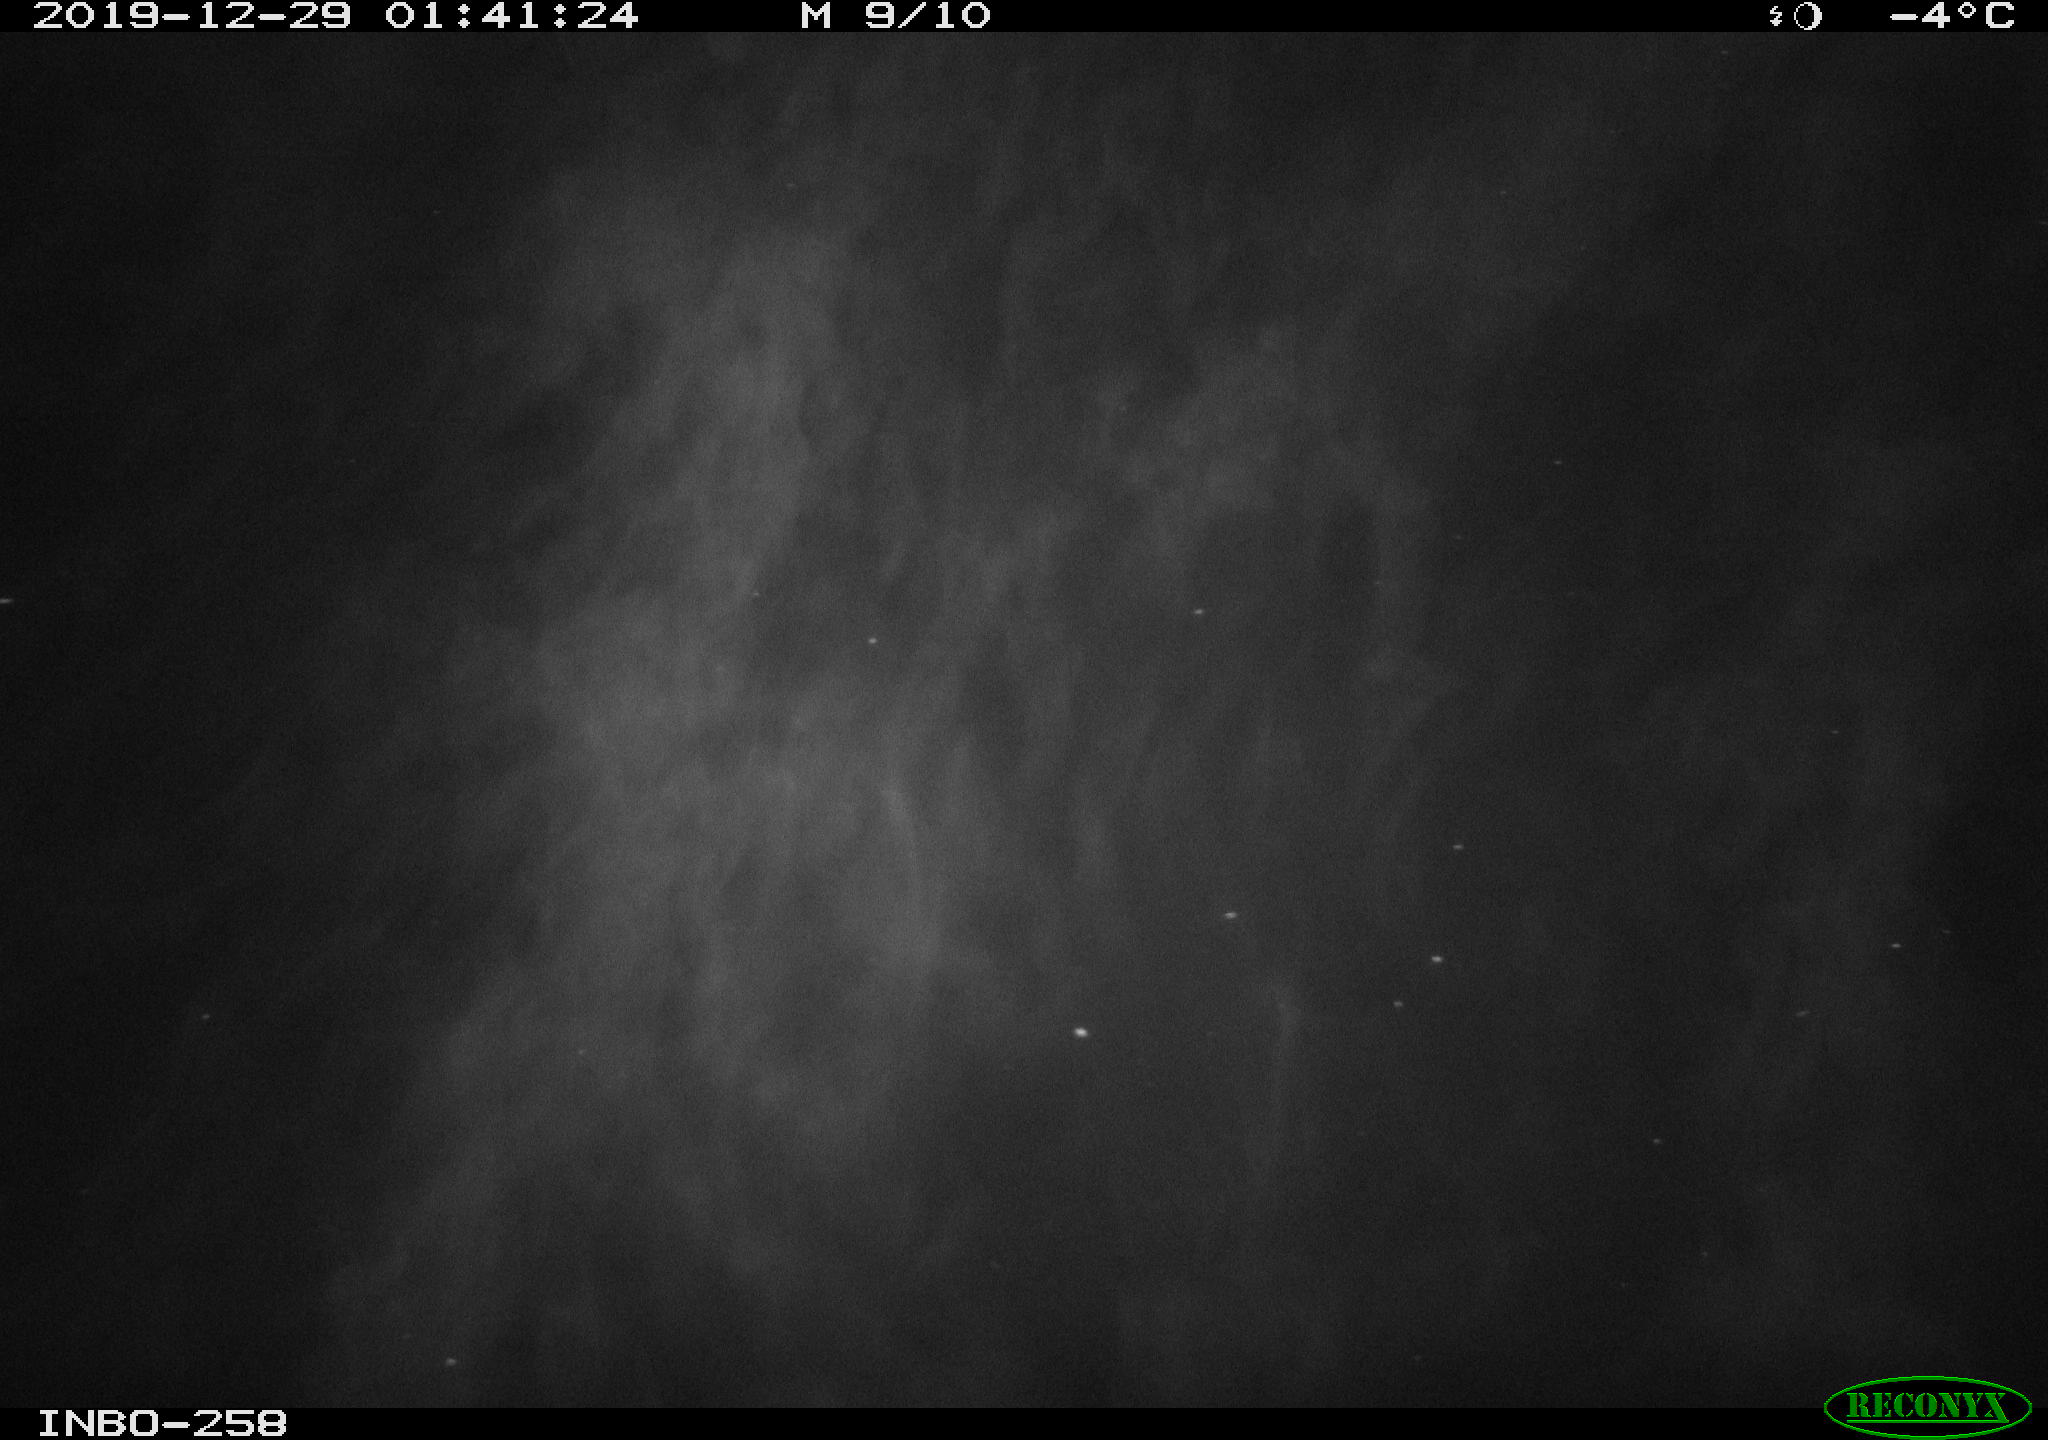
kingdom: Animalia
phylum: Chordata
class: Mammalia
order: Rodentia
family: Muridae
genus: Rattus
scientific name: Rattus norvegicus
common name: Brown rat
